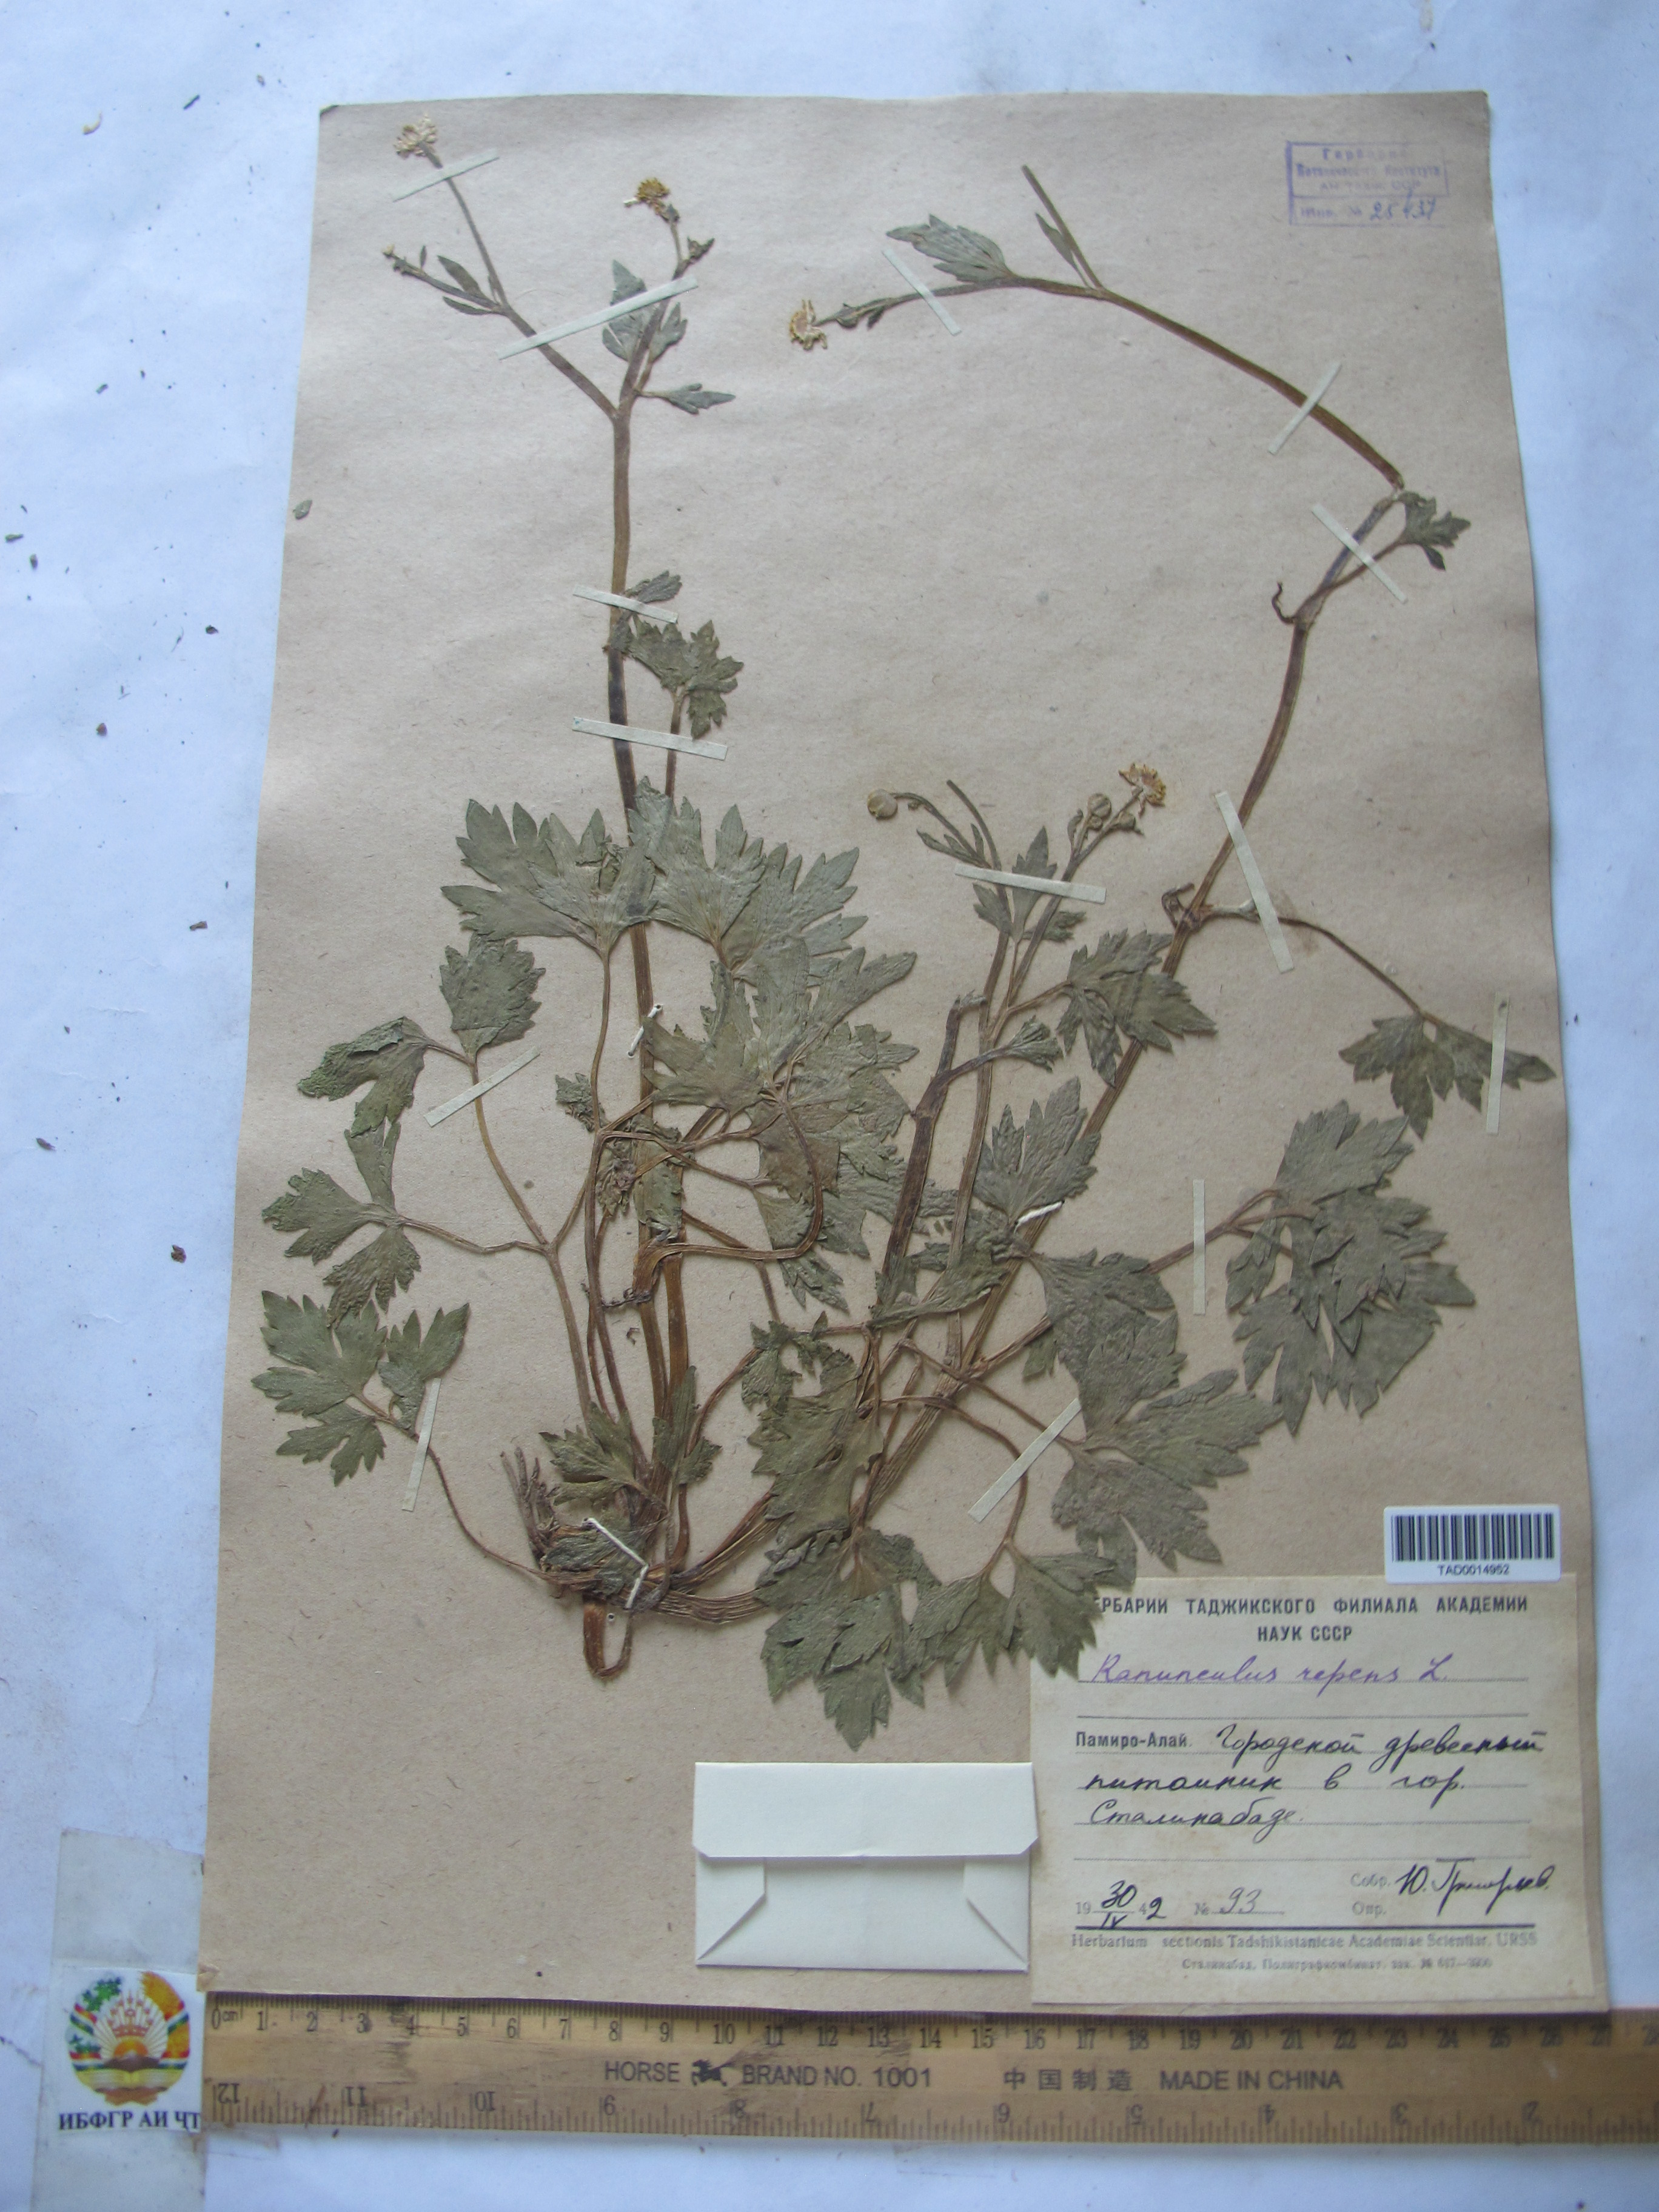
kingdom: Plantae
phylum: Tracheophyta
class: Magnoliopsida
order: Ranunculales
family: Ranunculaceae
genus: Ranunculus
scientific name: Ranunculus repens
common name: Creeping buttercup
